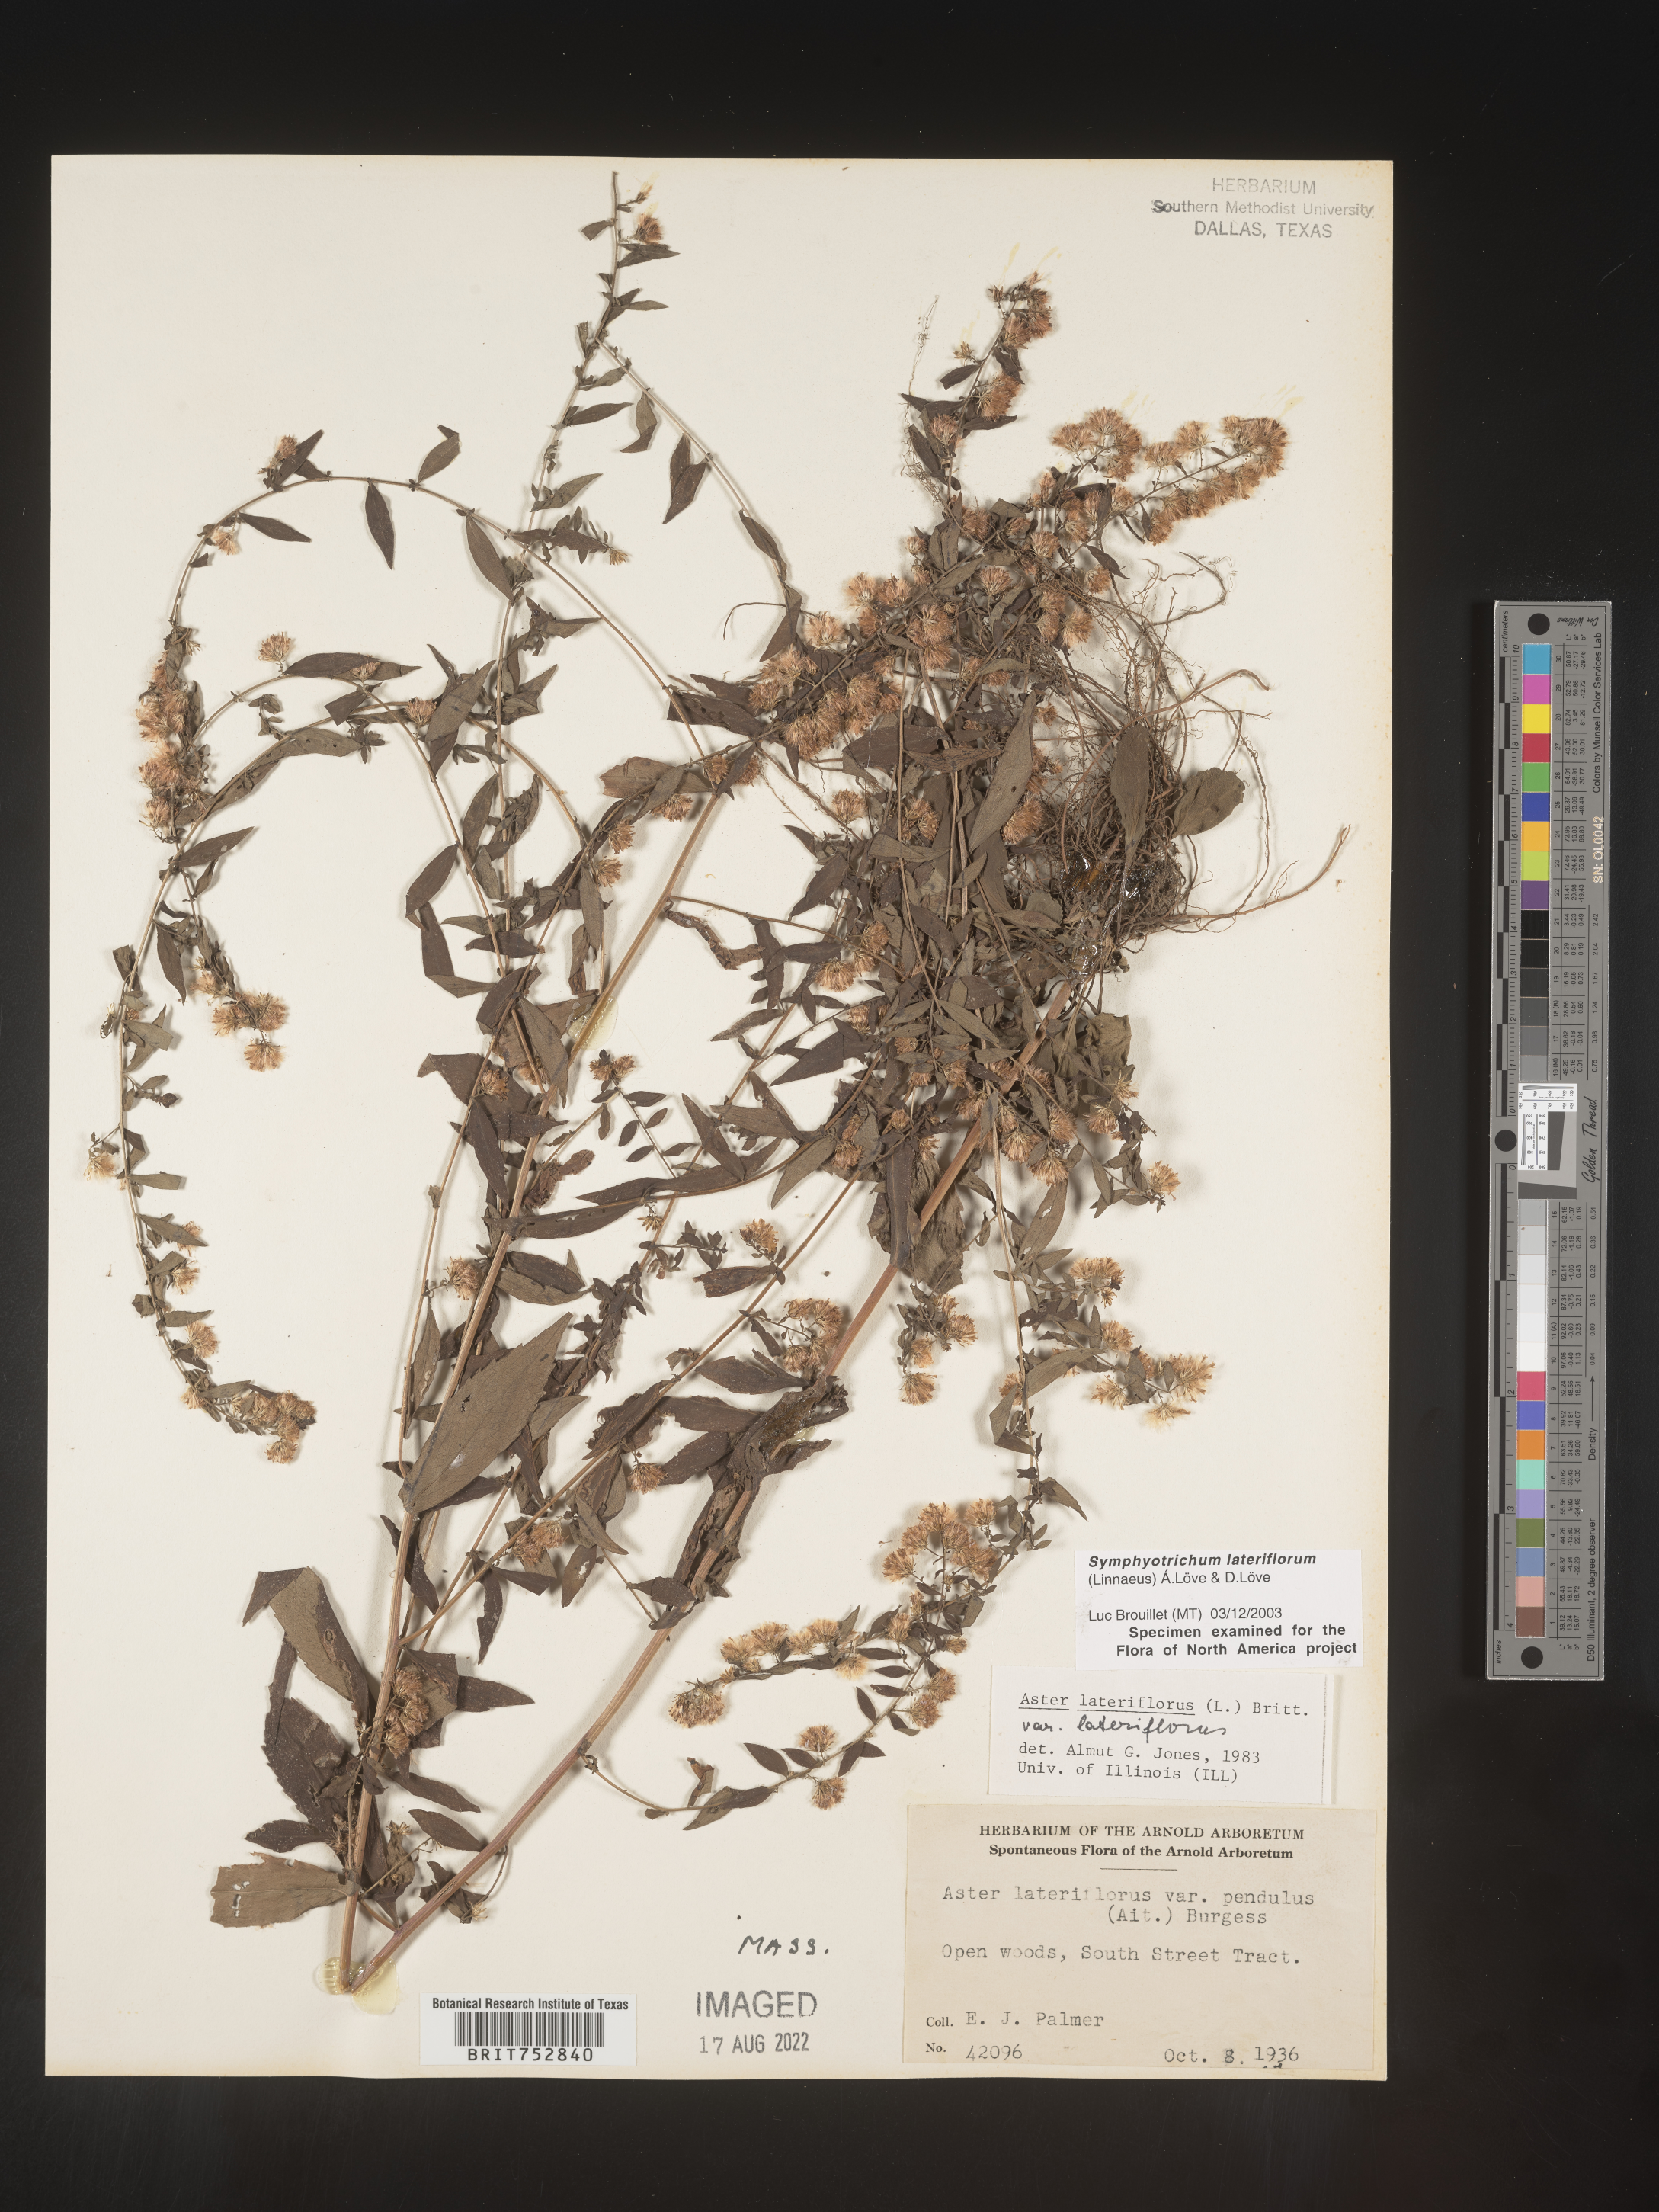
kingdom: Plantae
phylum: Tracheophyta
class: Magnoliopsida
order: Asterales
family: Asteraceae
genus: Symphyotrichum
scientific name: Symphyotrichum lateriflorum
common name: Calico aster
